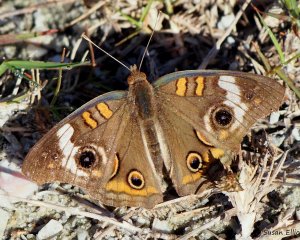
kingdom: Animalia
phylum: Arthropoda
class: Insecta
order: Lepidoptera
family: Nymphalidae
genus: Junonia
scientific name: Junonia coenia
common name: Common Buckeye
